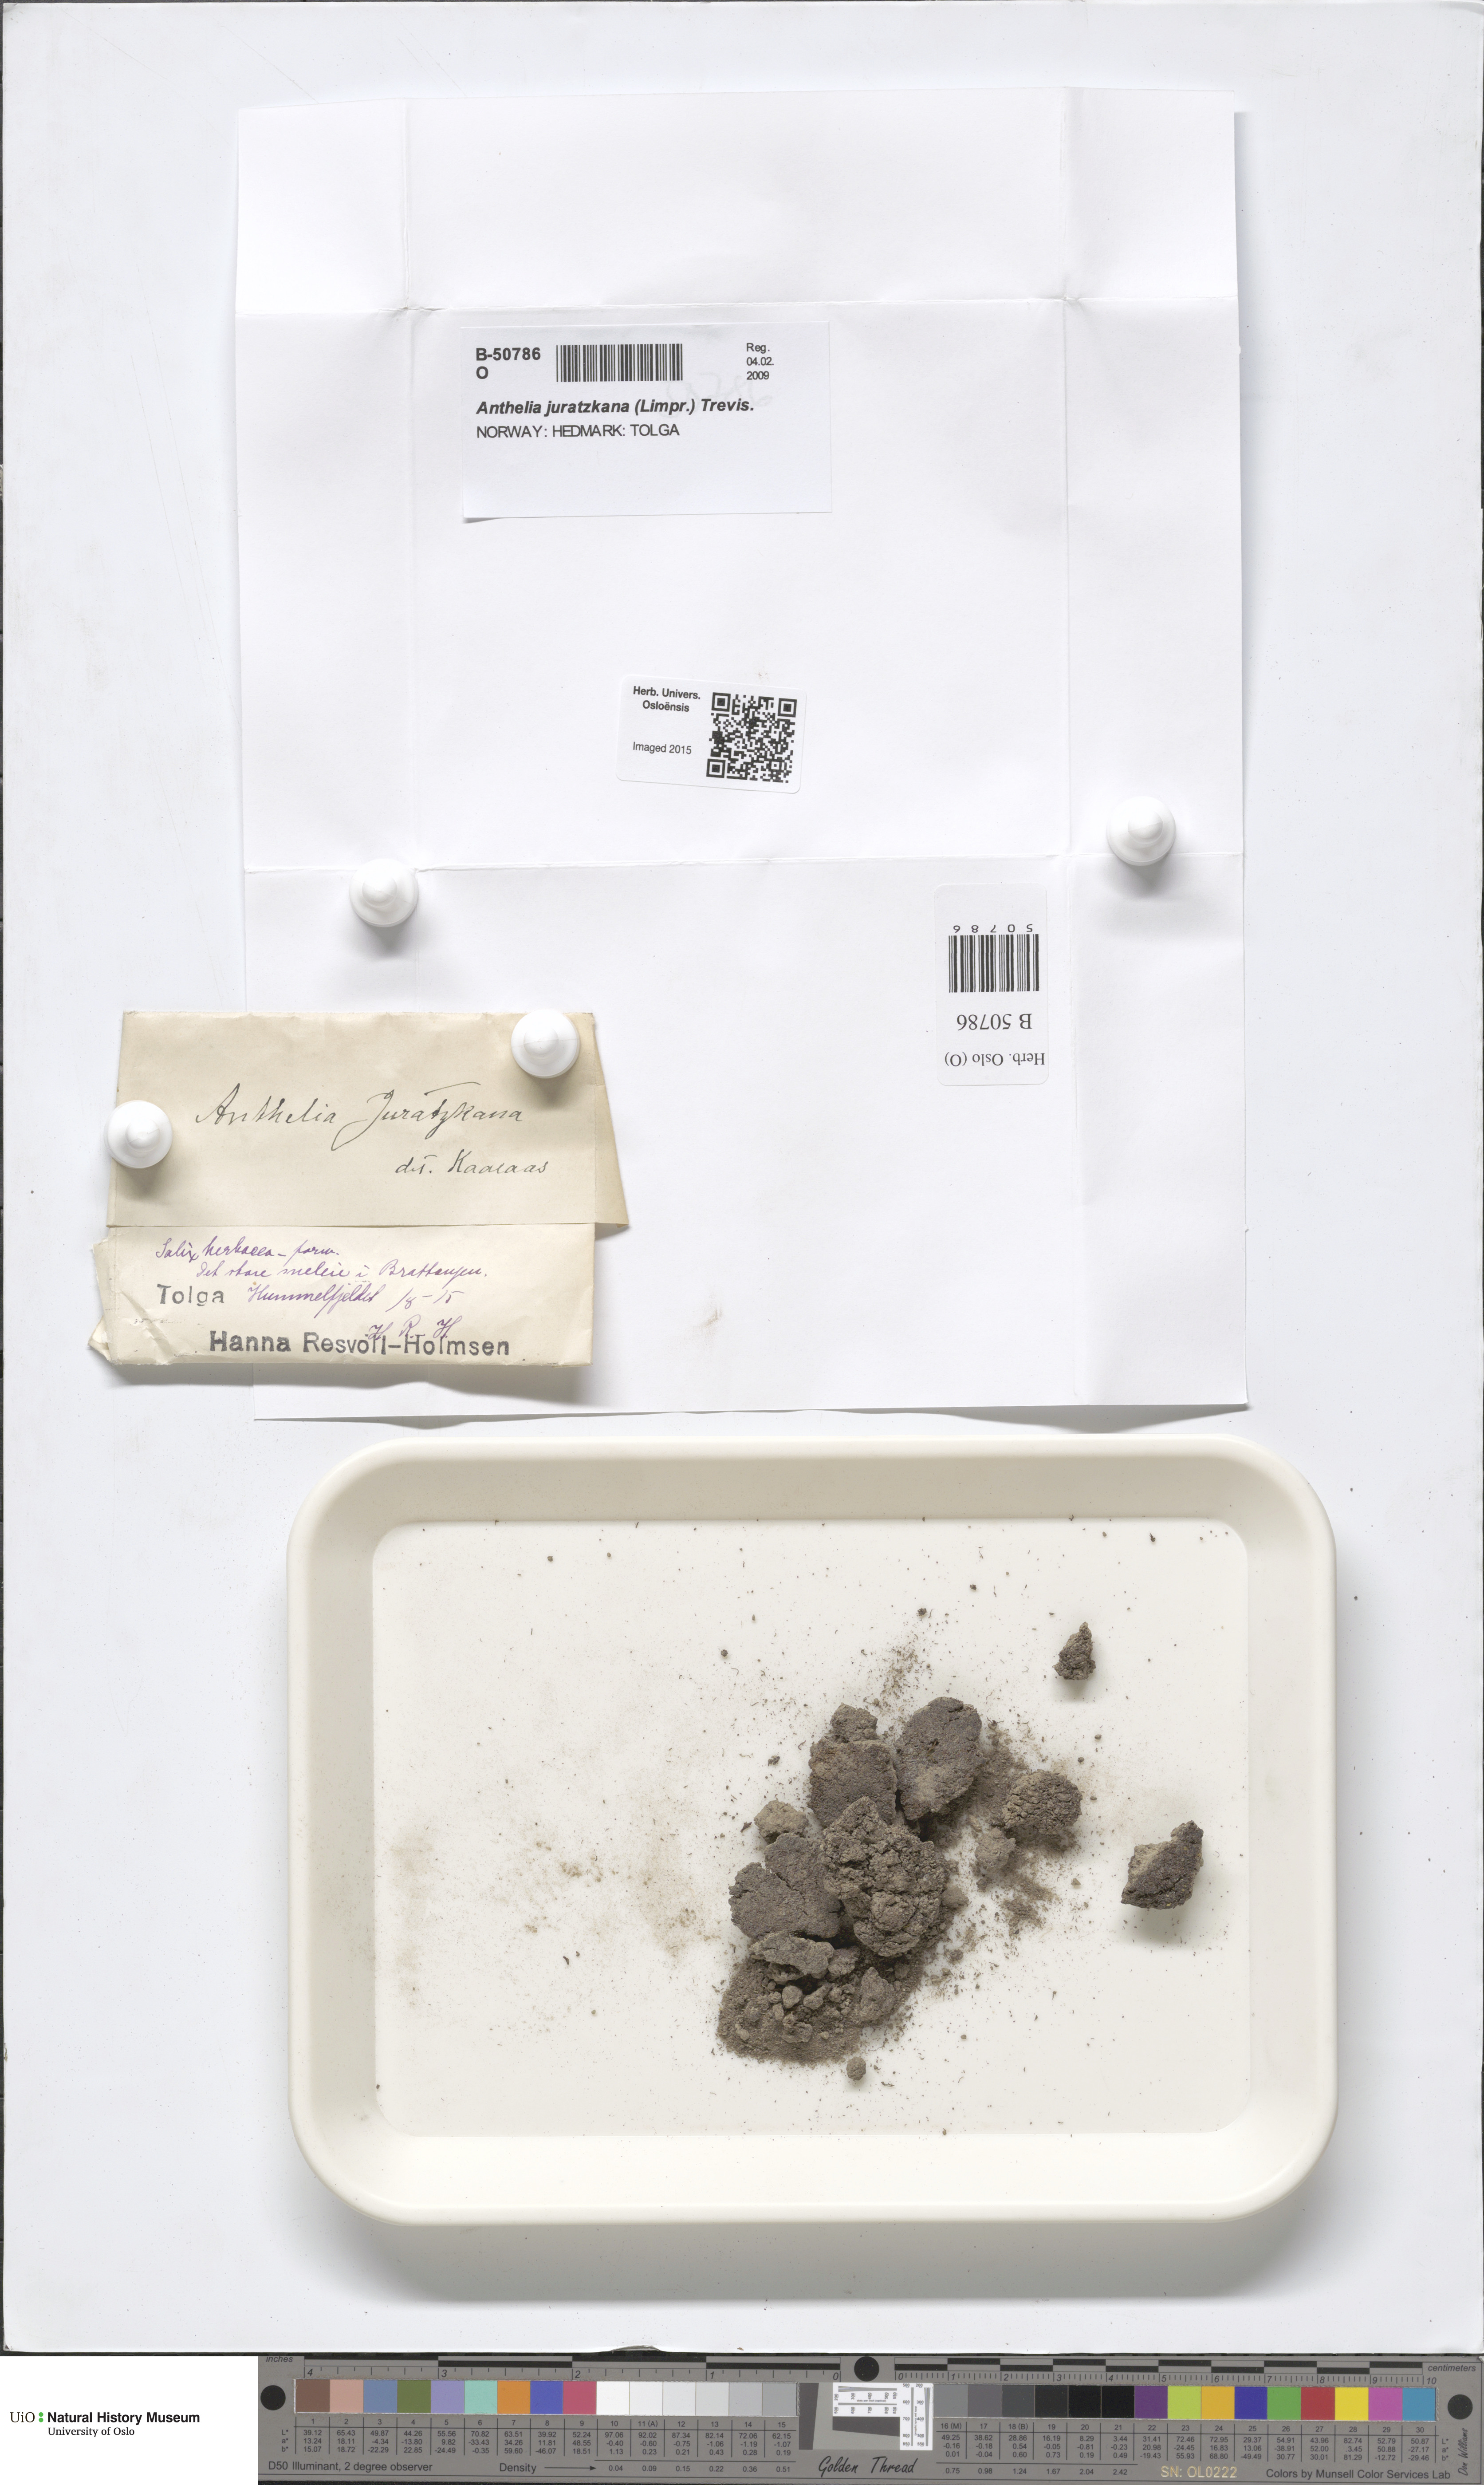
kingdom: Plantae
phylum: Marchantiophyta
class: Jungermanniopsida
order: Jungermanniales
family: Antheliaceae
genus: Anthelia
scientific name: Anthelia juratzkana
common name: Juratzka s silverwort
